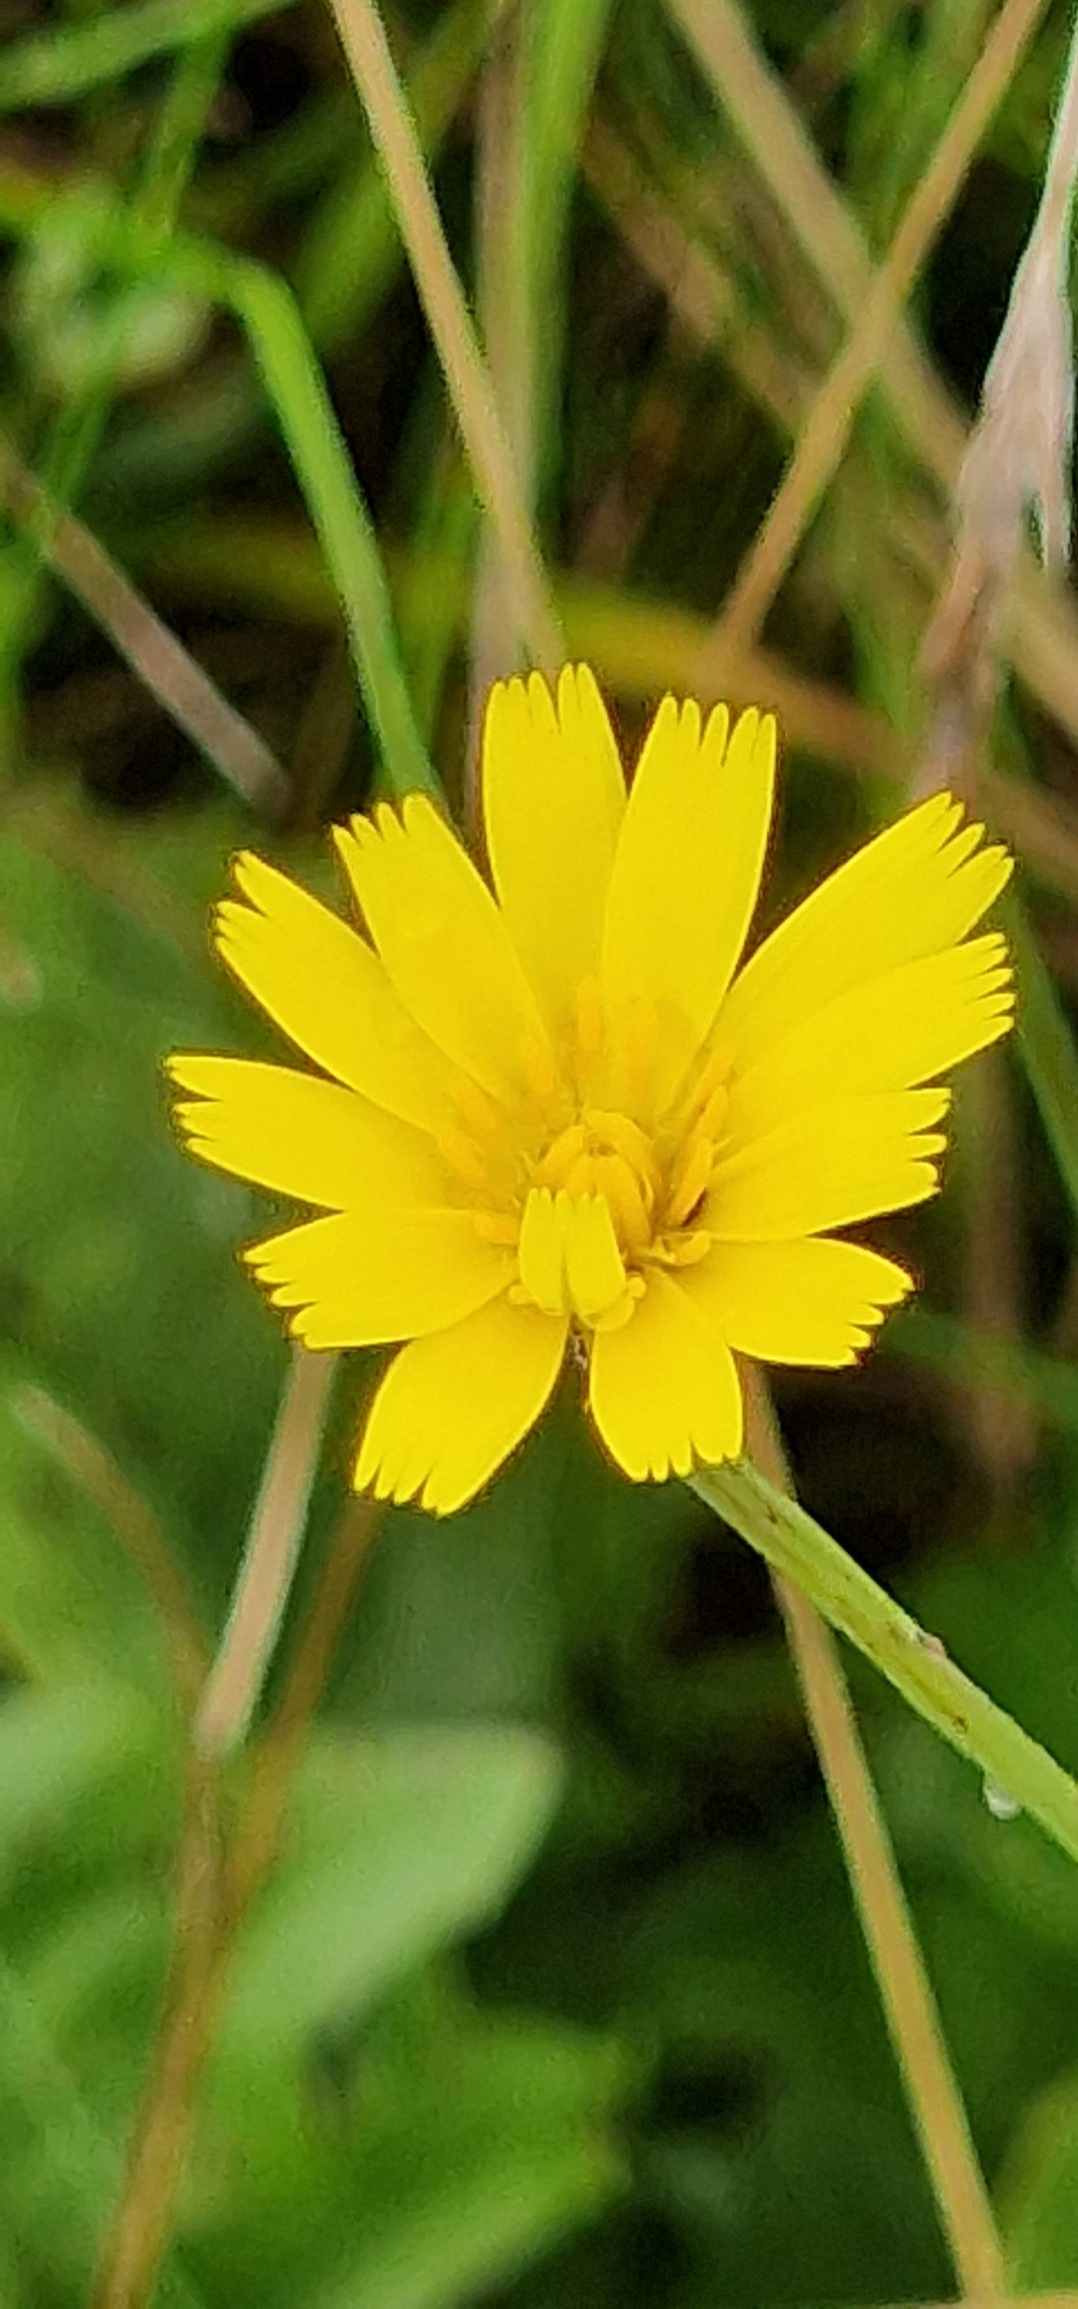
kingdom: Plantae
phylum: Tracheophyta
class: Magnoliopsida
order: Asterales
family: Asteraceae
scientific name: Asteraceae
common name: Kurvblomstfamilien
